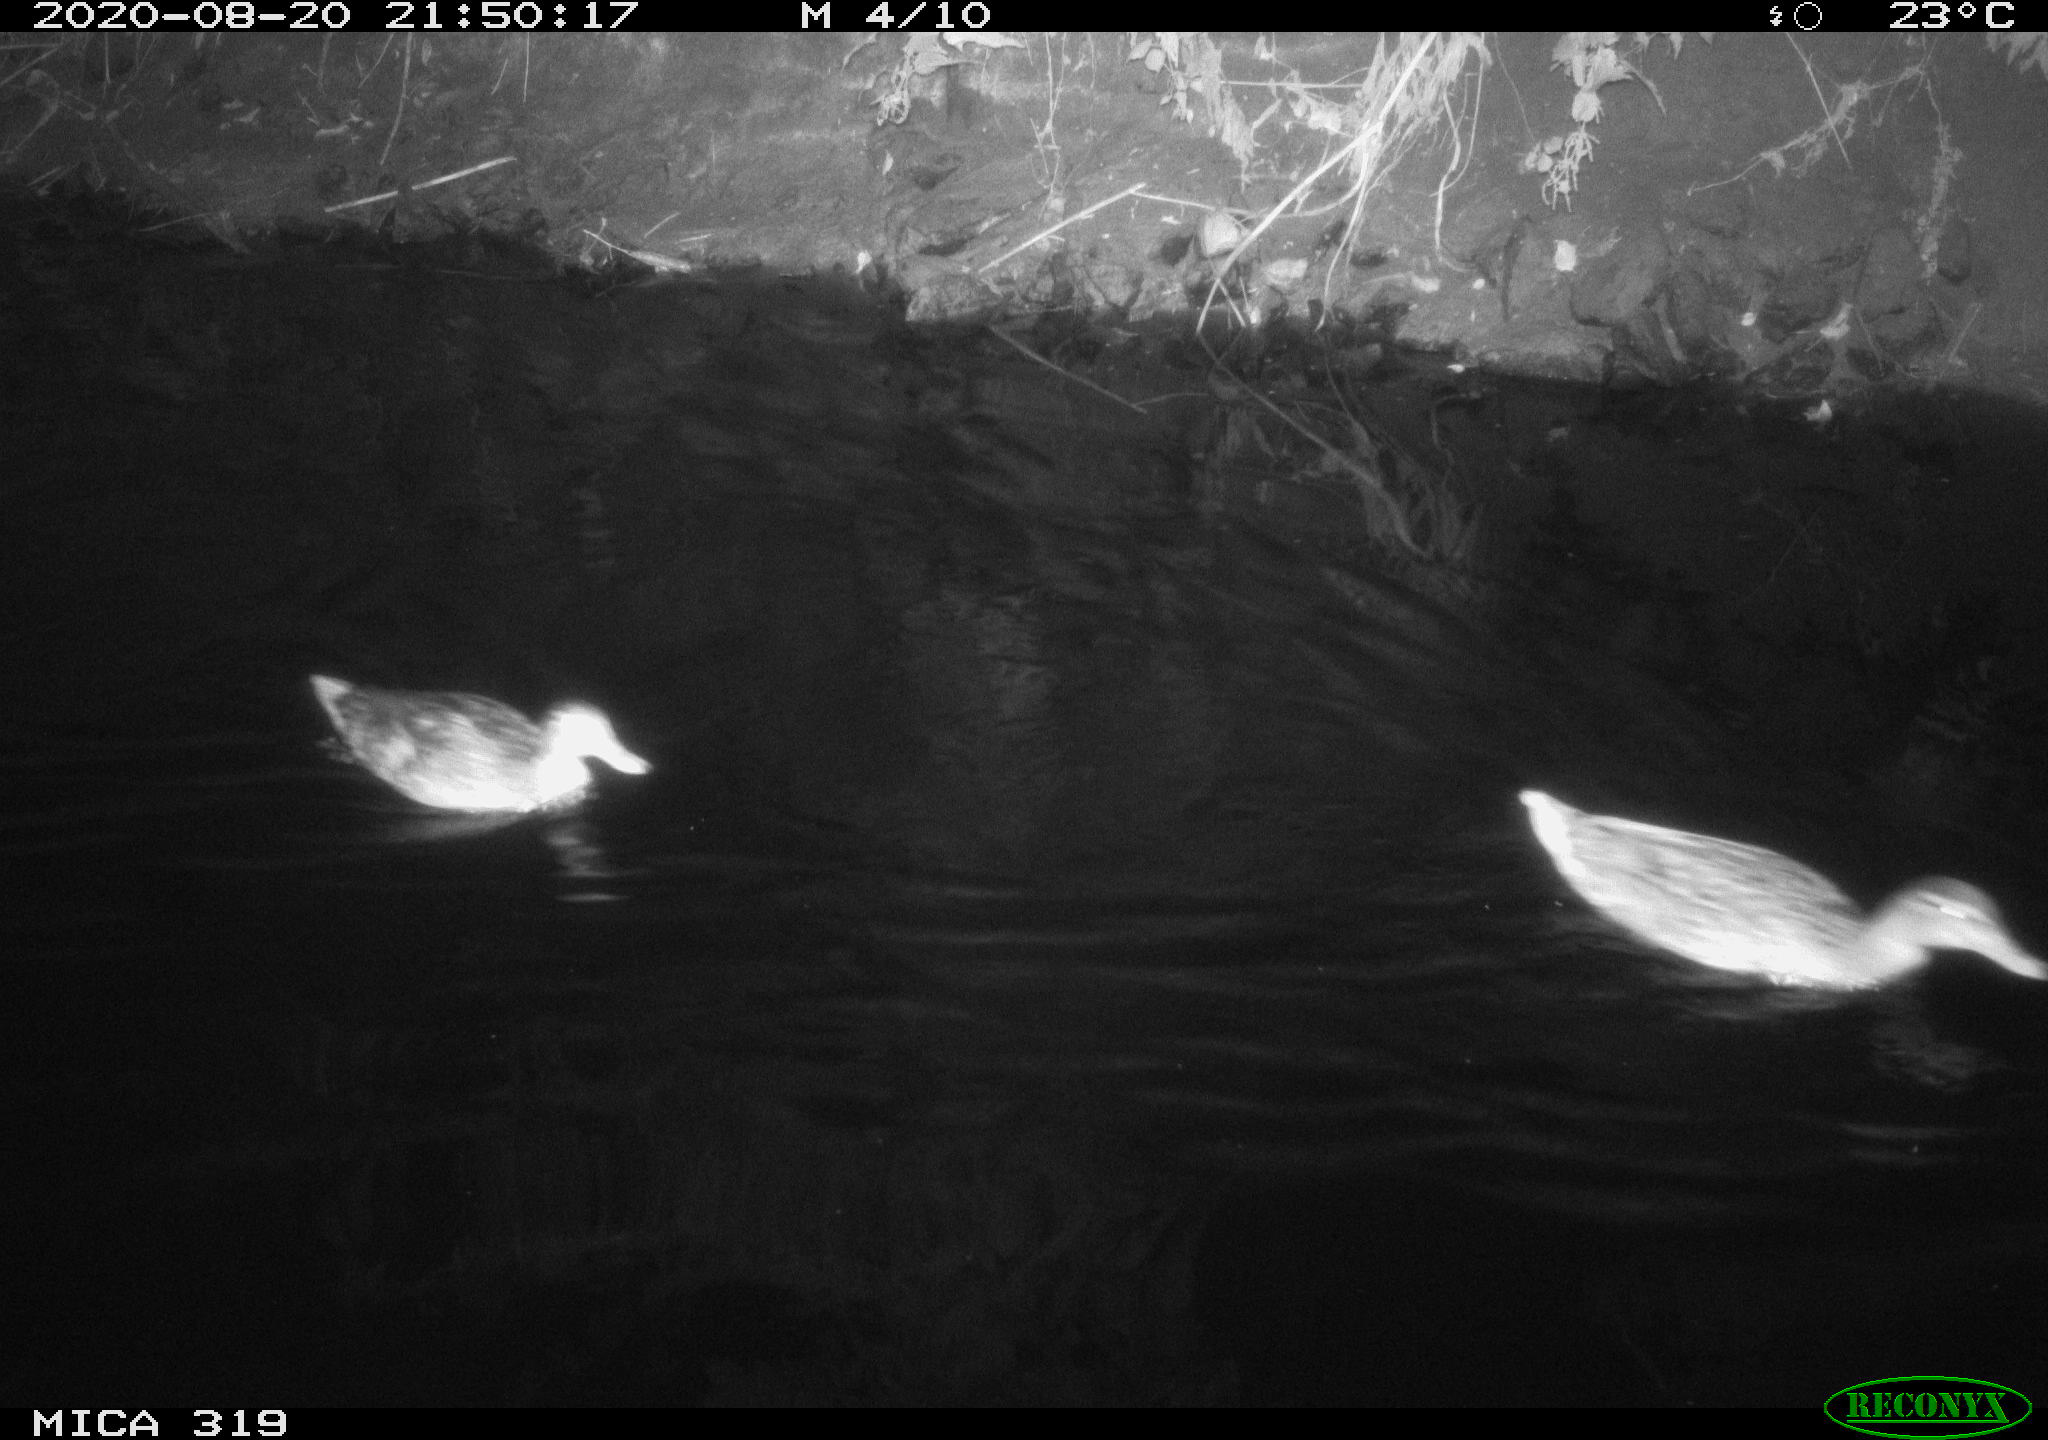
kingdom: Animalia
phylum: Chordata
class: Aves
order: Anseriformes
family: Anatidae
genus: Anas
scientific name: Anas platyrhynchos
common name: Mallard
